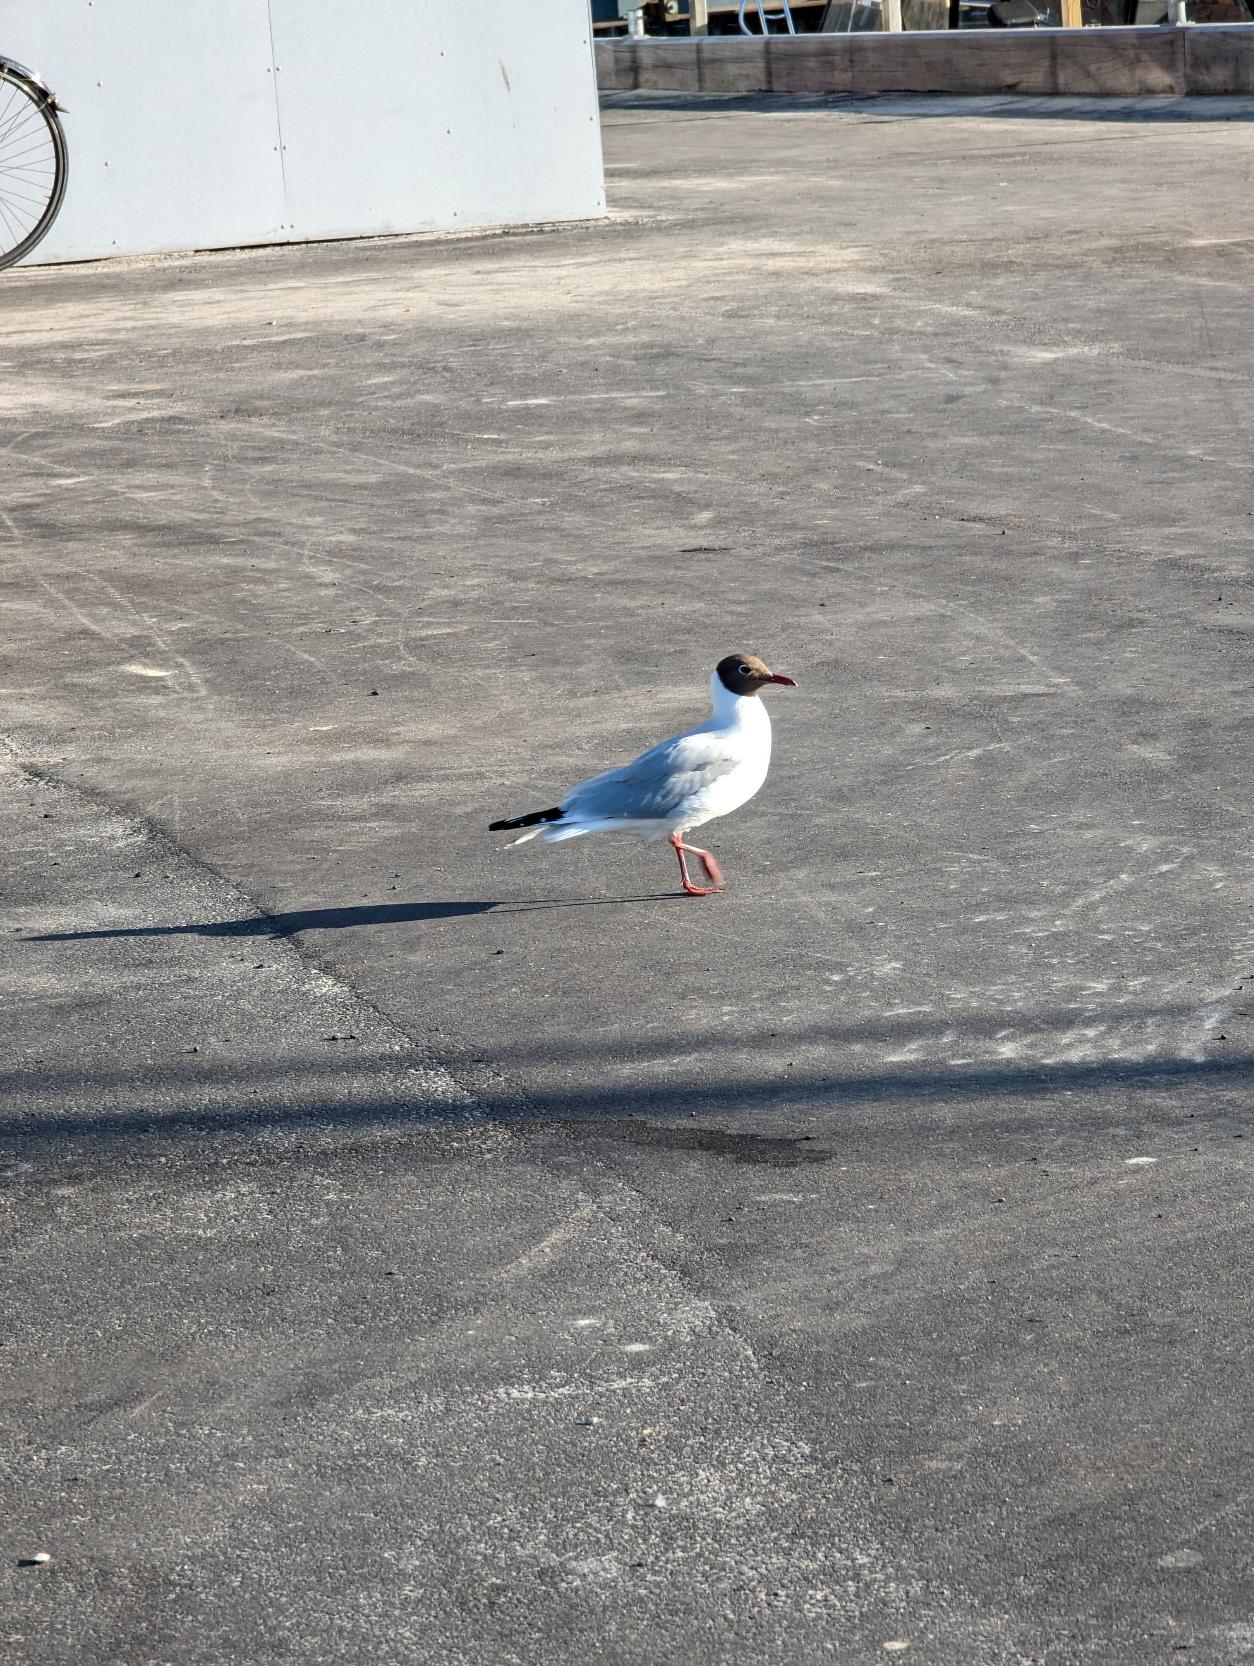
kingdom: Animalia
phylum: Chordata
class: Aves
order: Charadriiformes
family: Laridae
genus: Chroicocephalus
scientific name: Chroicocephalus ridibundus
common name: Hættemåge
